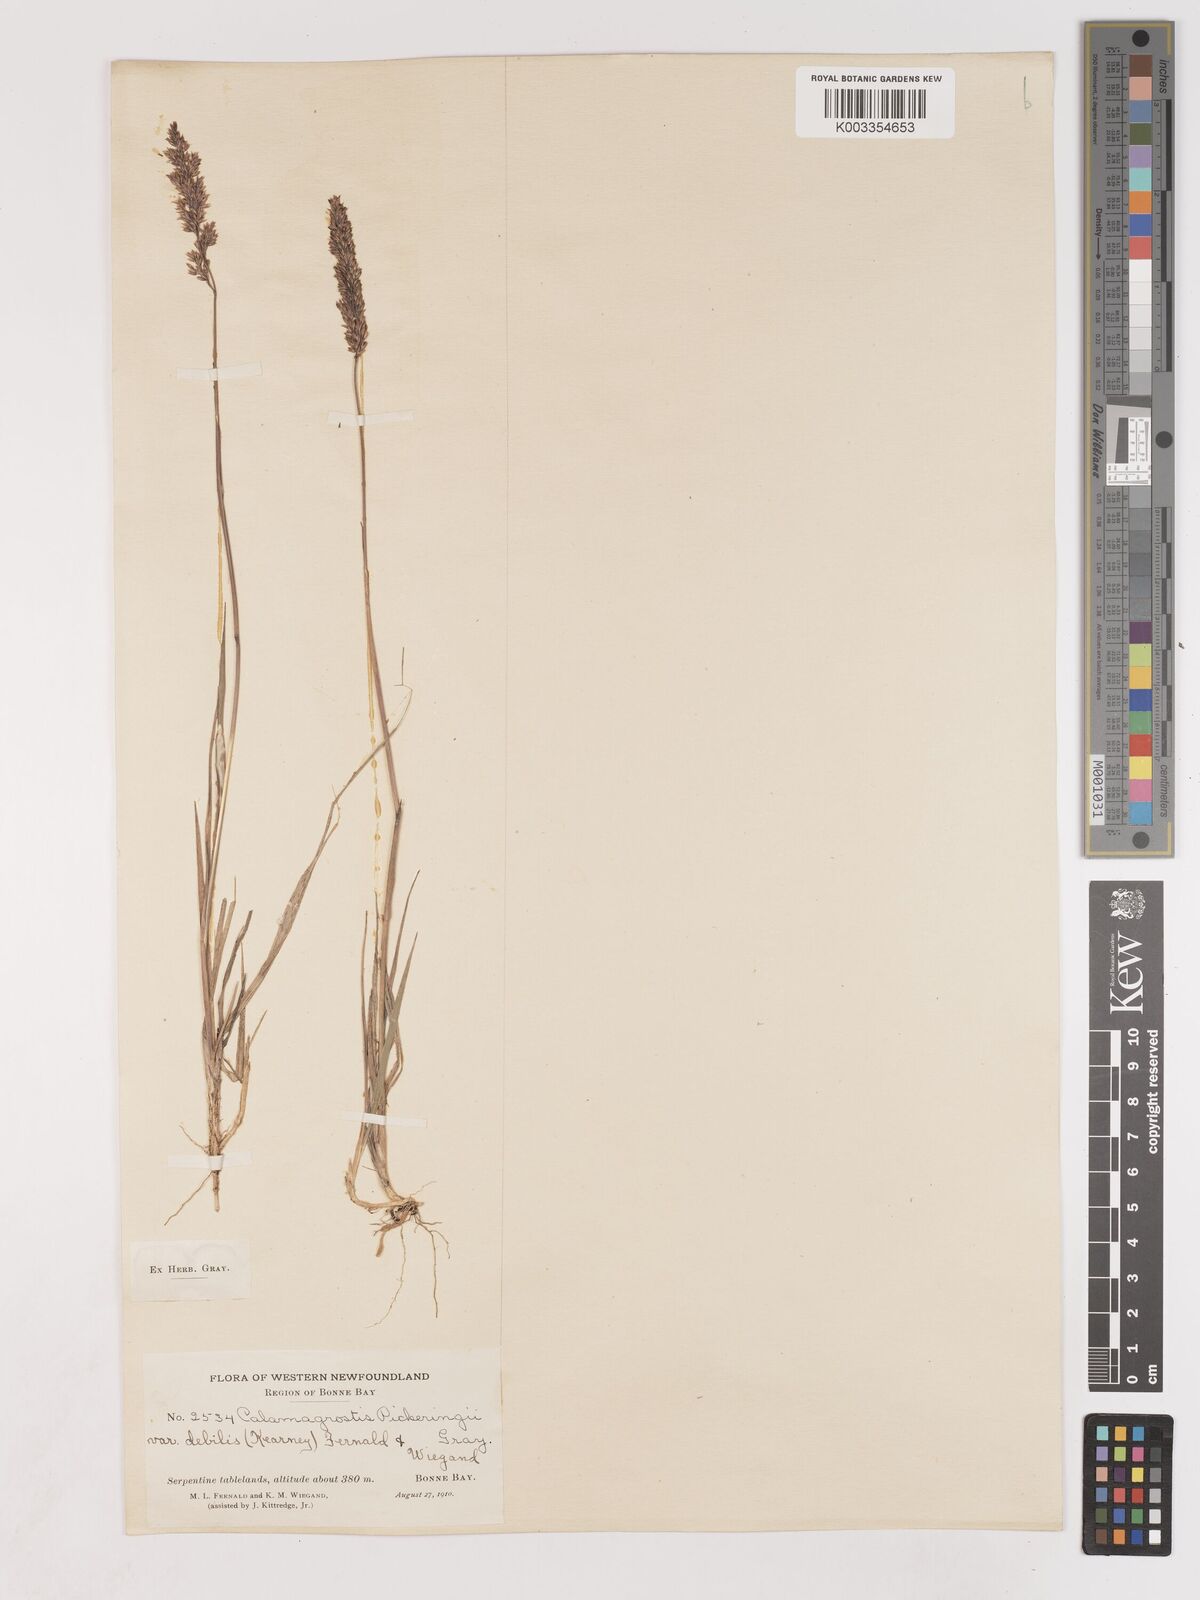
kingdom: Plantae
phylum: Tracheophyta
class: Liliopsida
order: Poales
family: Poaceae
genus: Calamagrostis
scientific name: Calamagrostis pickeringii
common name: Pickering's reed bentgrass
